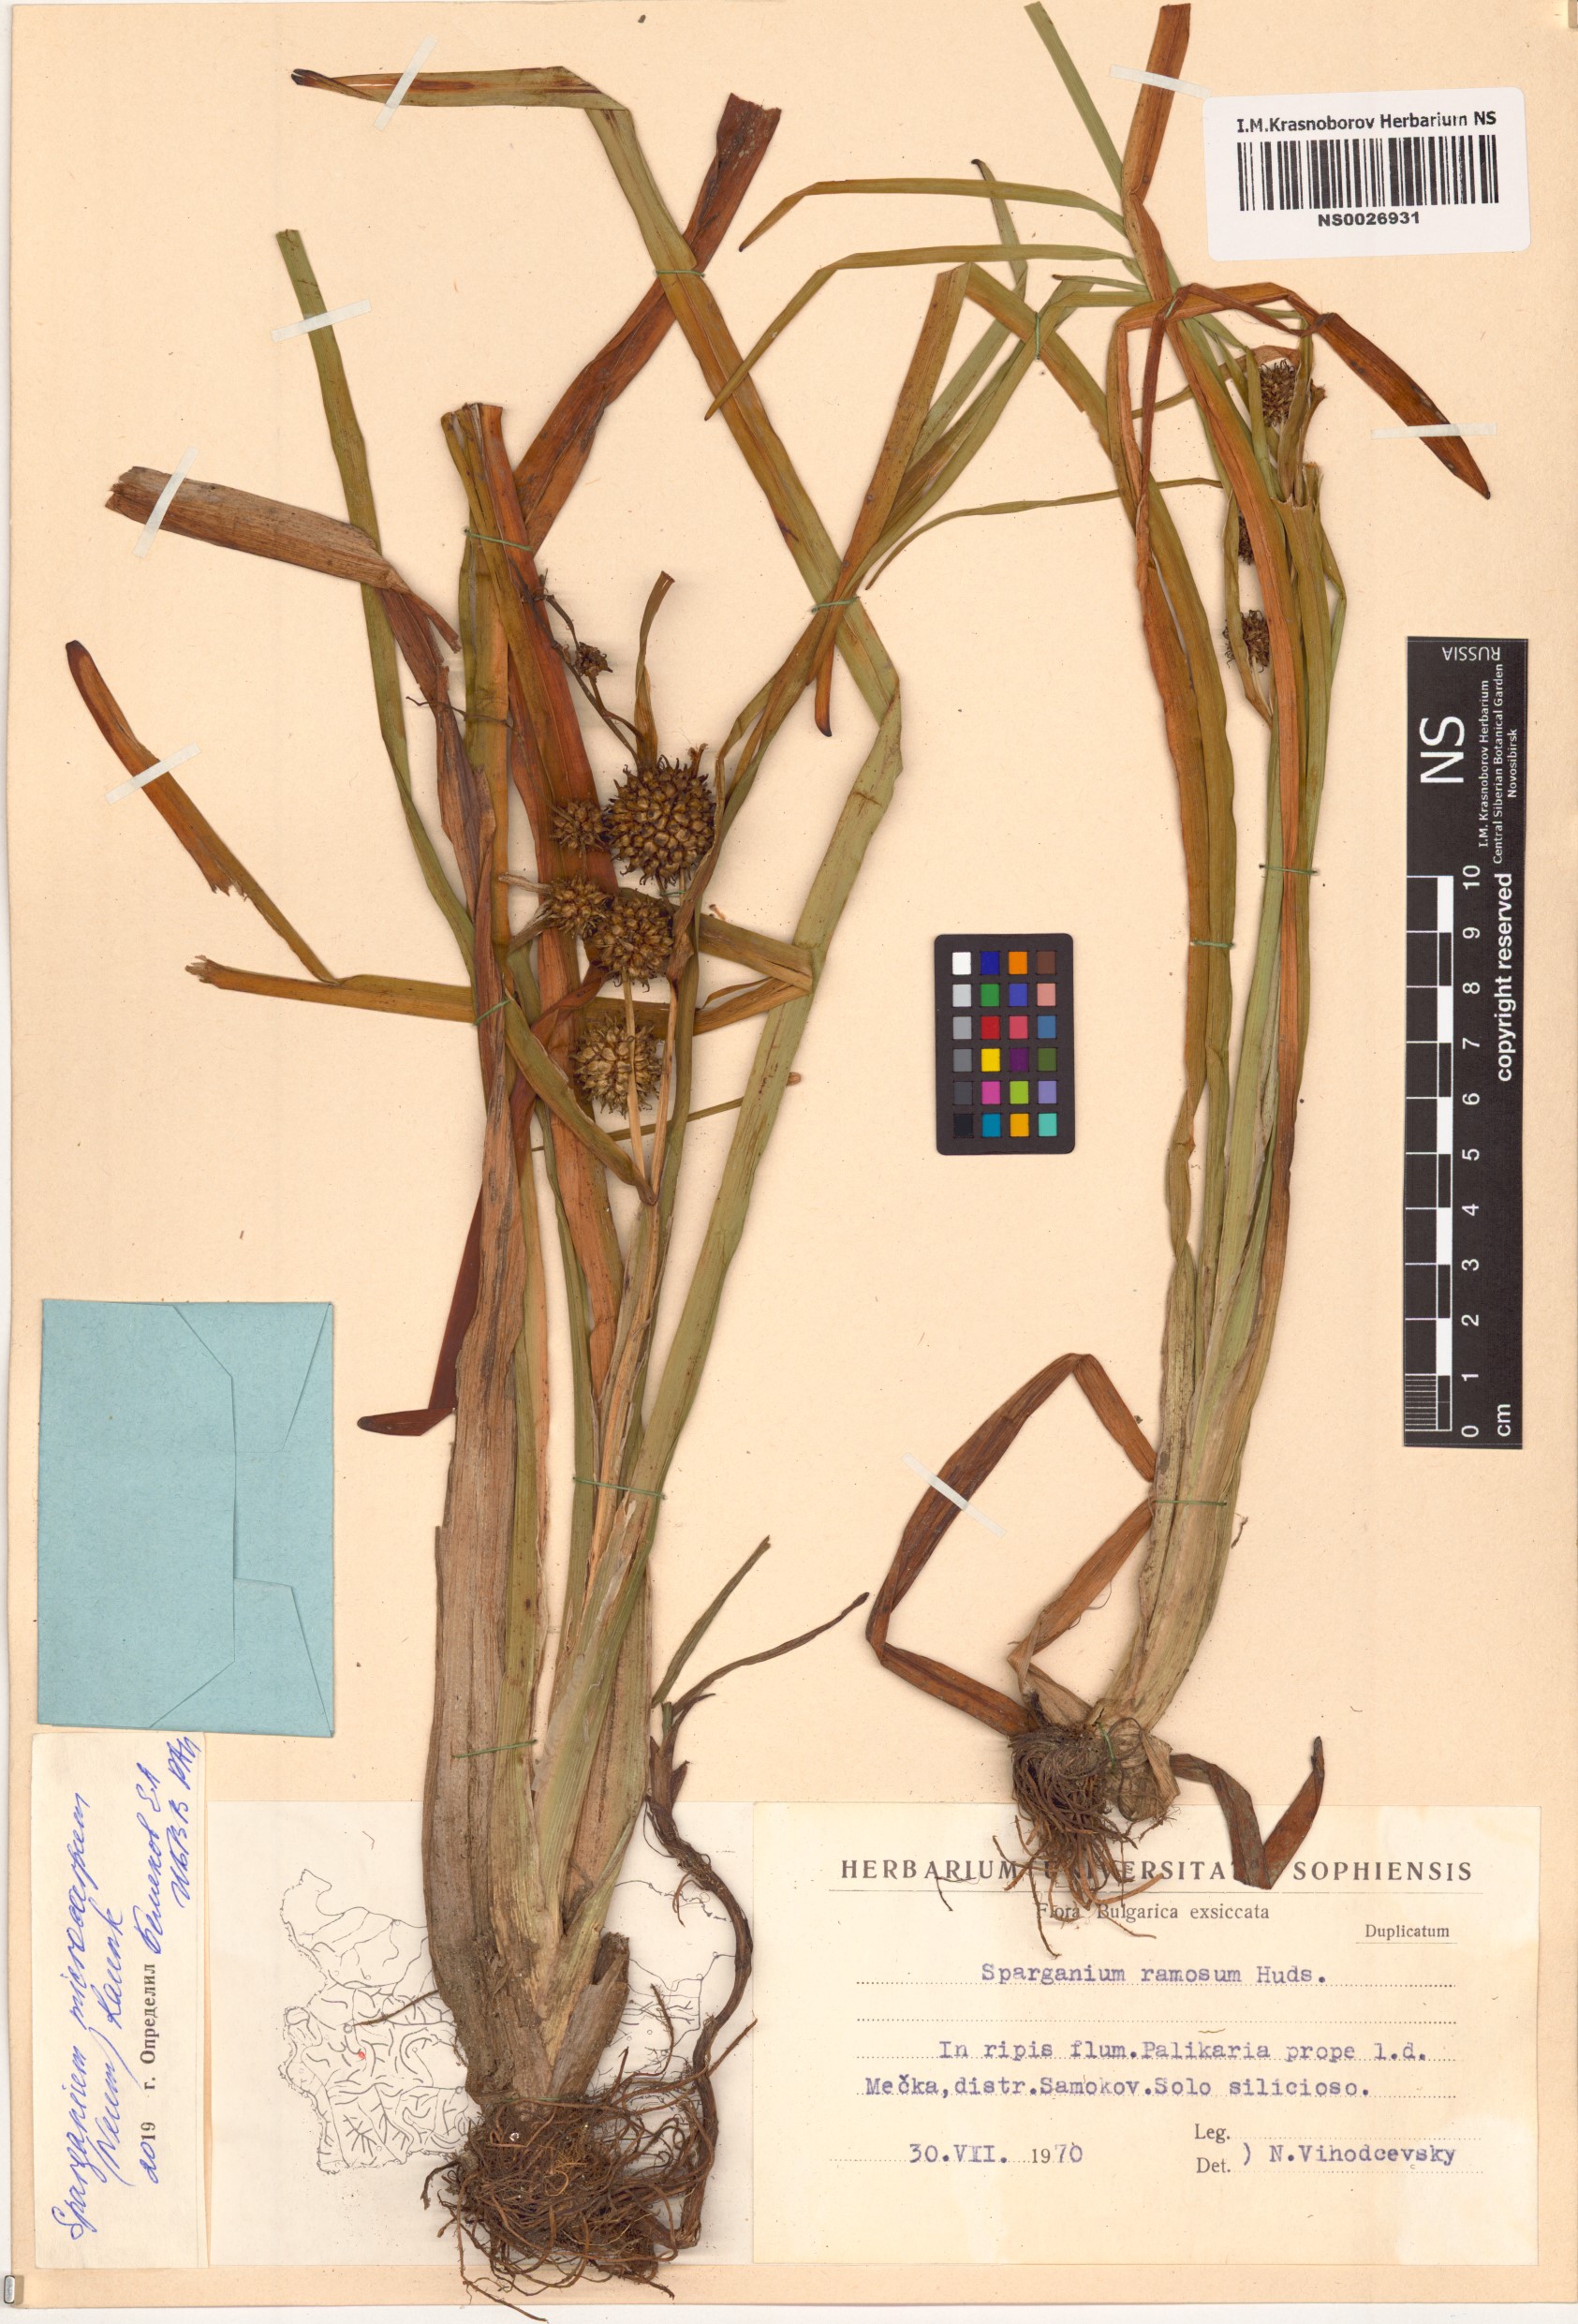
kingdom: Plantae
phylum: Tracheophyta
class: Liliopsida
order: Poales
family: Typhaceae
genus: Sparganium
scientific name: Sparganium erectum
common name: Branched bur-reed
